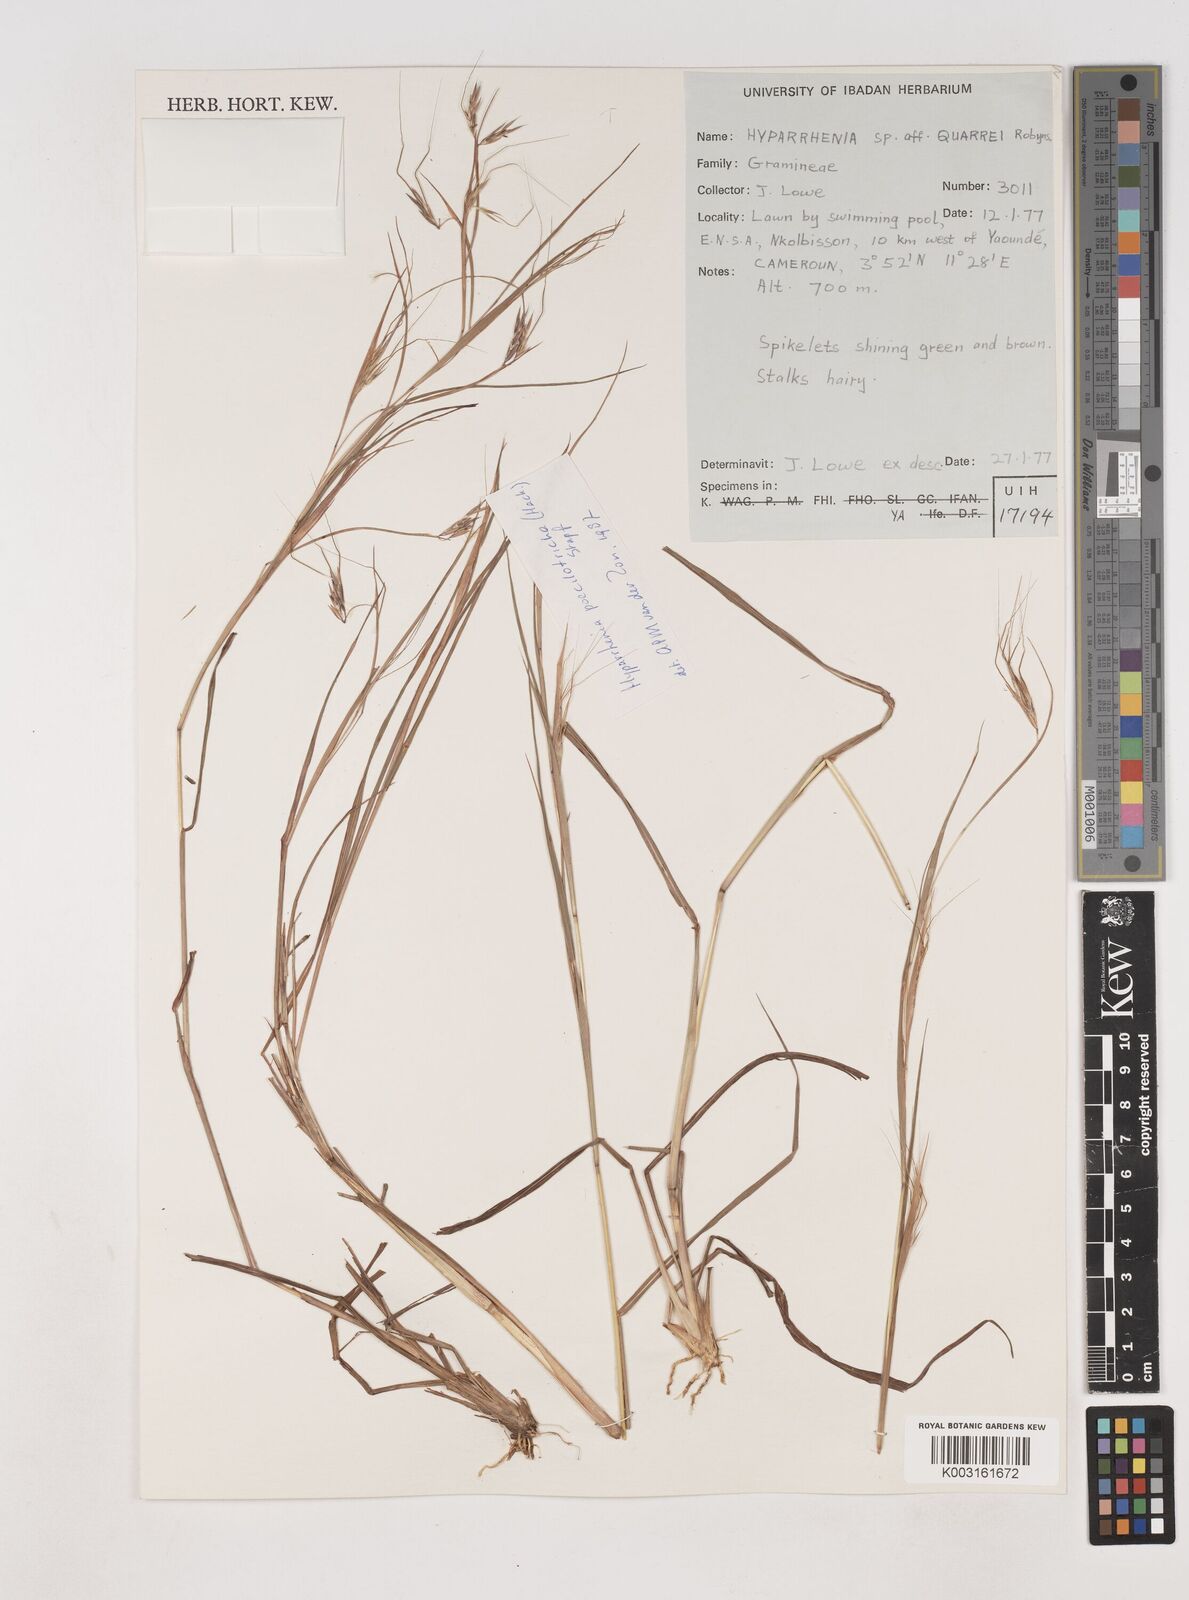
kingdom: Plantae
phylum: Tracheophyta
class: Liliopsida
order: Poales
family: Poaceae
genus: Hyparrhenia
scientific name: Hyparrhenia poecilotricha
